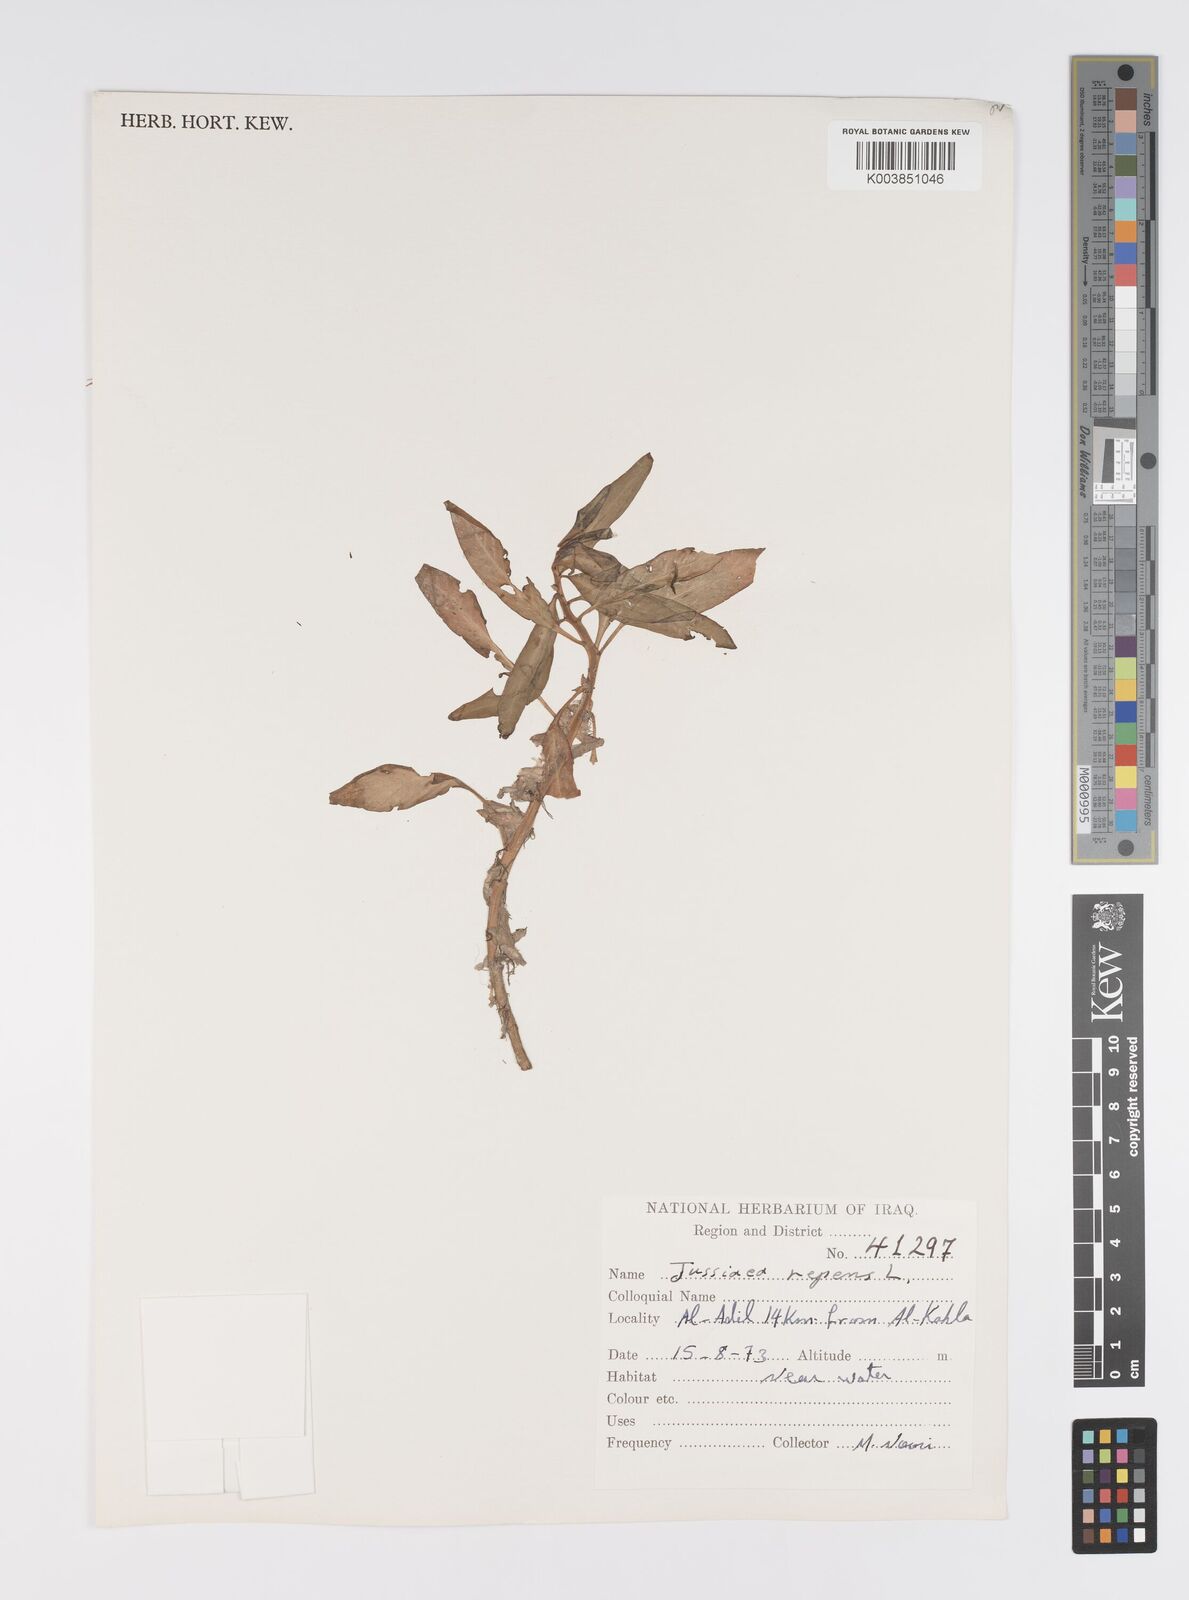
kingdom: Plantae
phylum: Tracheophyta
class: Magnoliopsida
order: Myrtales
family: Onagraceae
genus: Ludwigia
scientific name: Ludwigia adscendens
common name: Creeping water primrose
